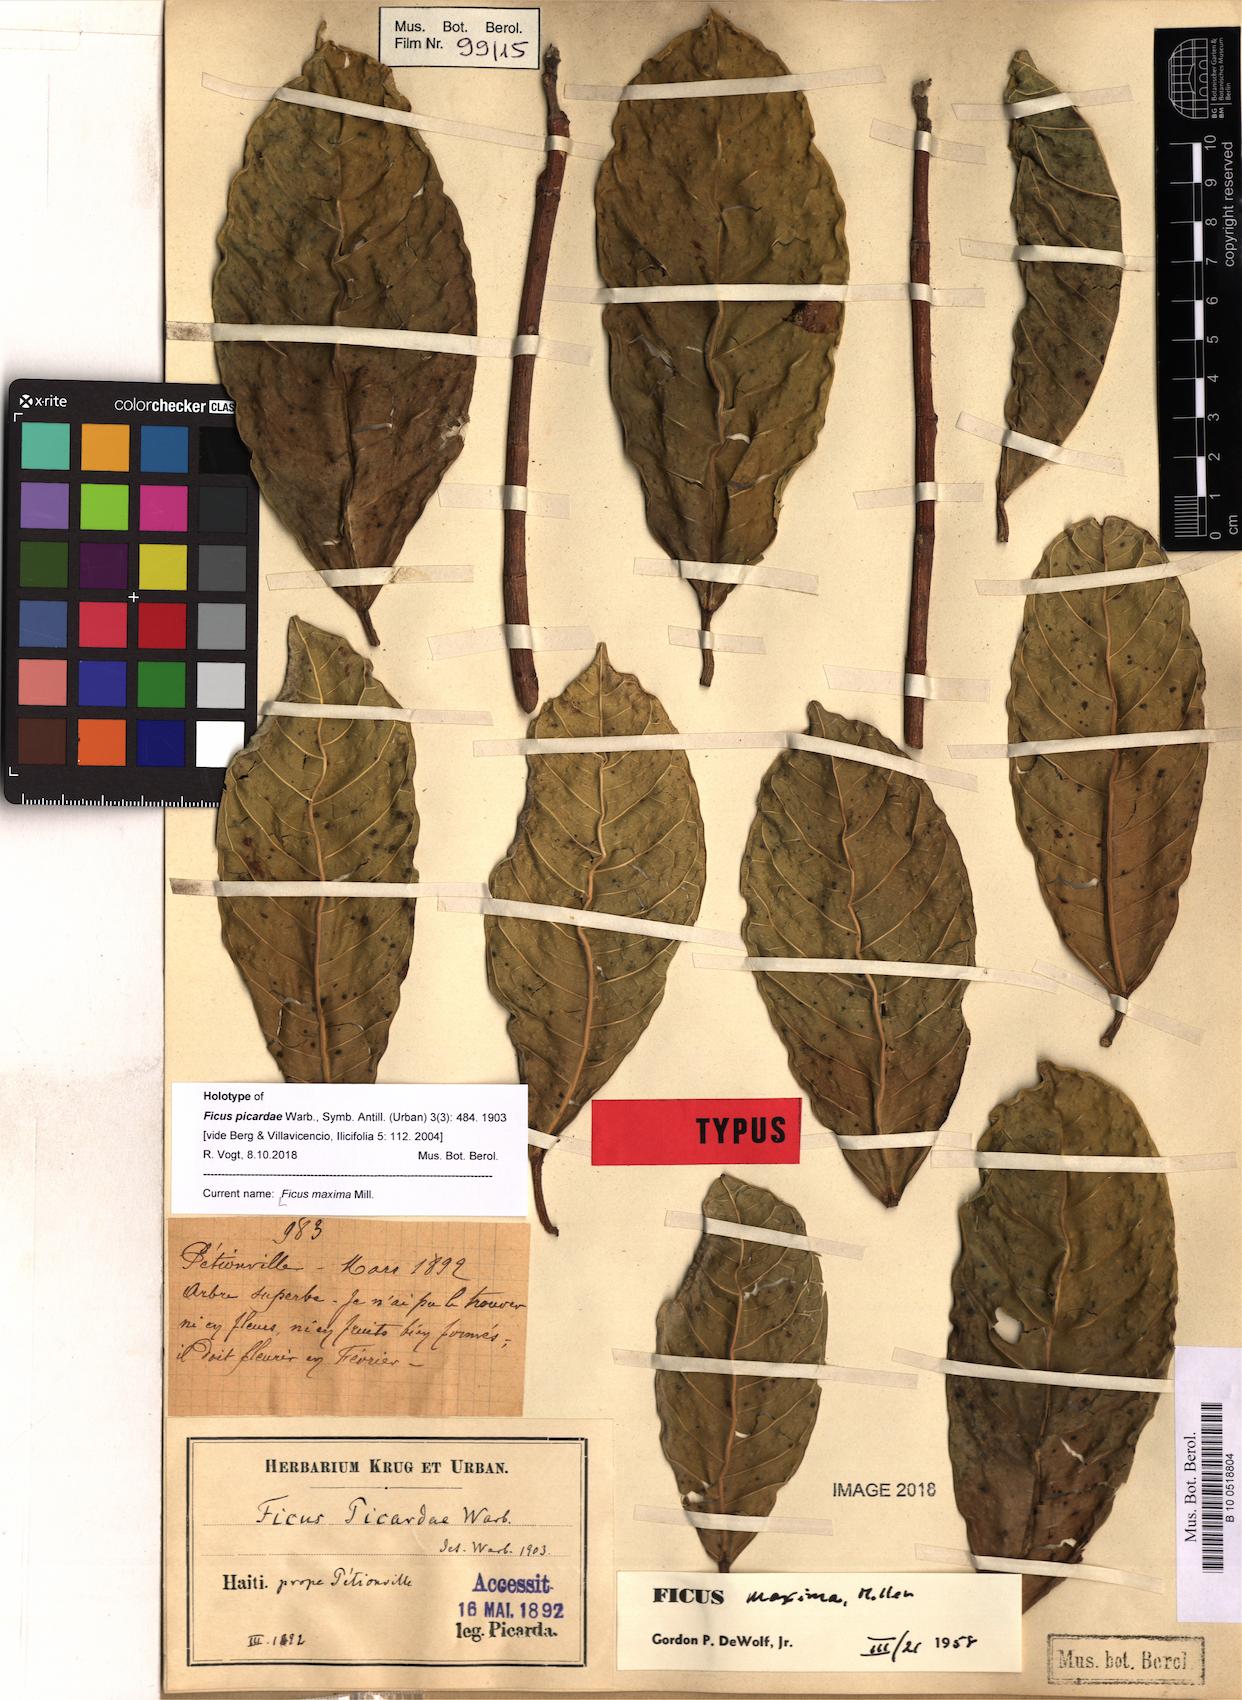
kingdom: Plantae
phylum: Tracheophyta
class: Magnoliopsida
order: Rosales
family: Moraceae
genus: Ficus
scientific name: Ficus maxima
